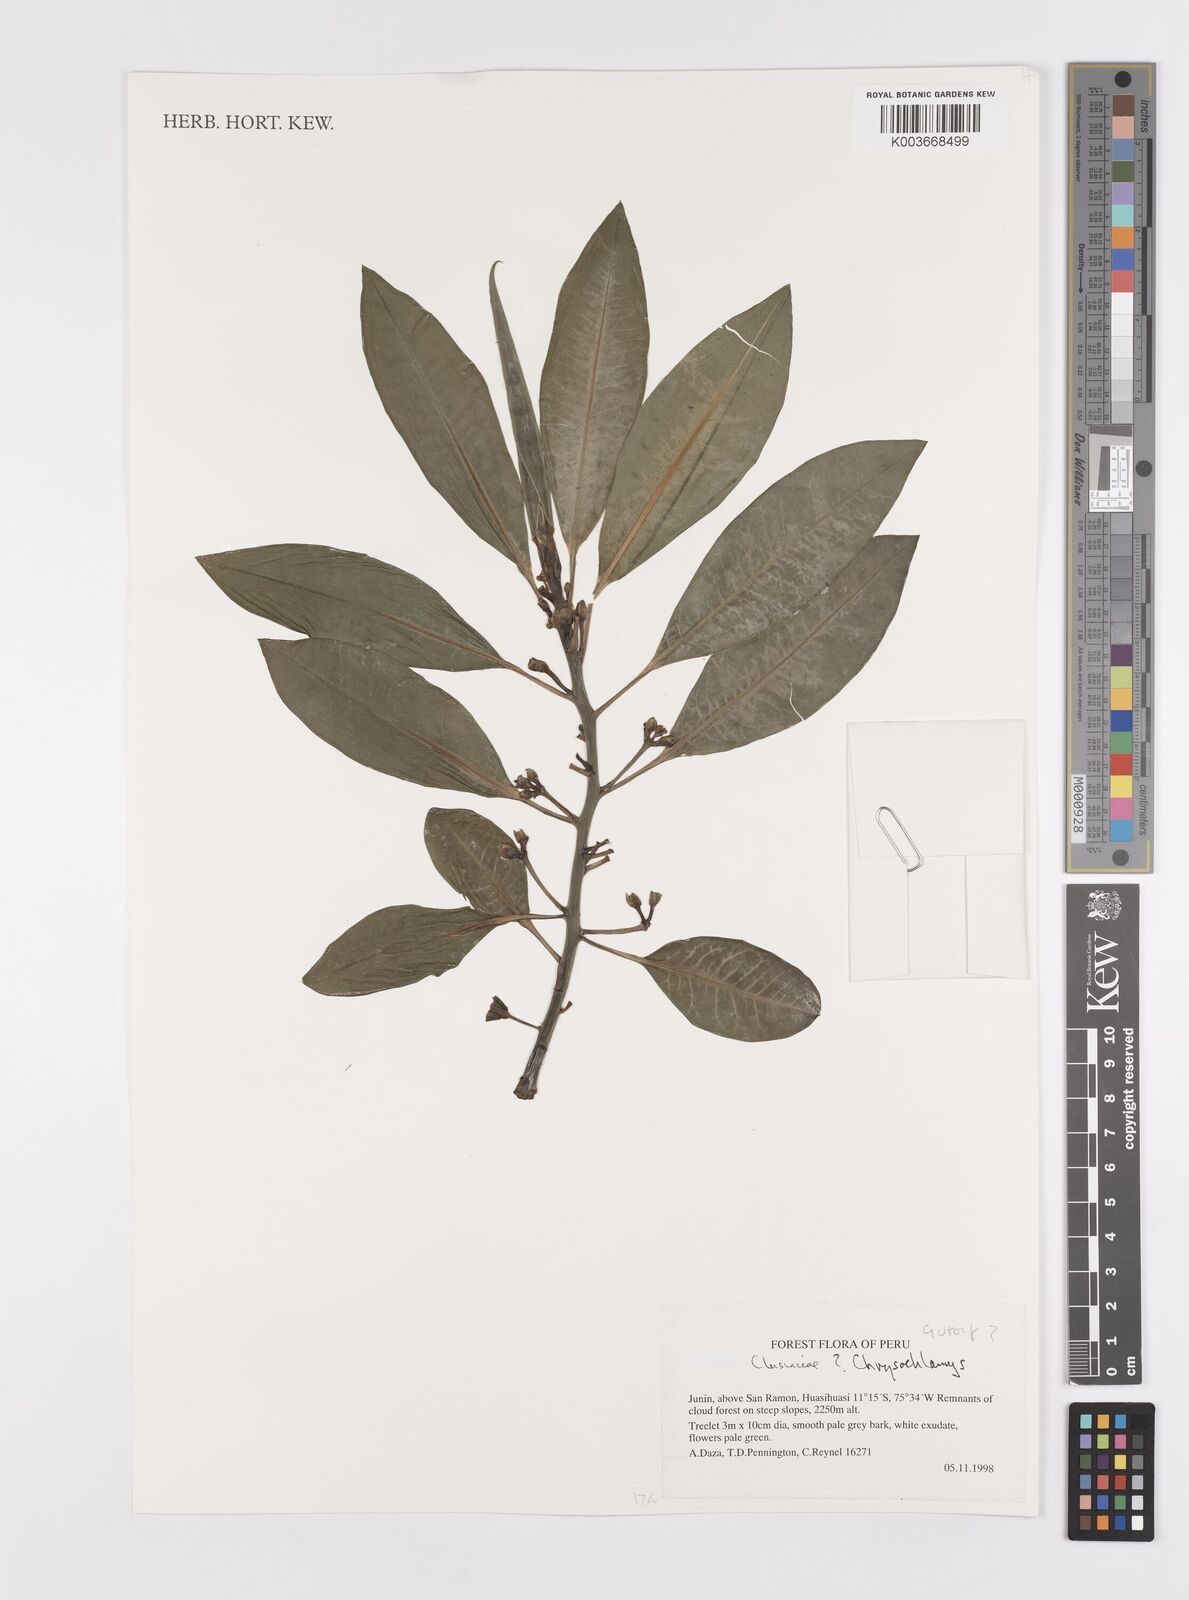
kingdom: Plantae
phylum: Tracheophyta
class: Magnoliopsida
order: Malpighiales
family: Clusiaceae
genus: Chrysochlamys
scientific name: Chrysochlamys
